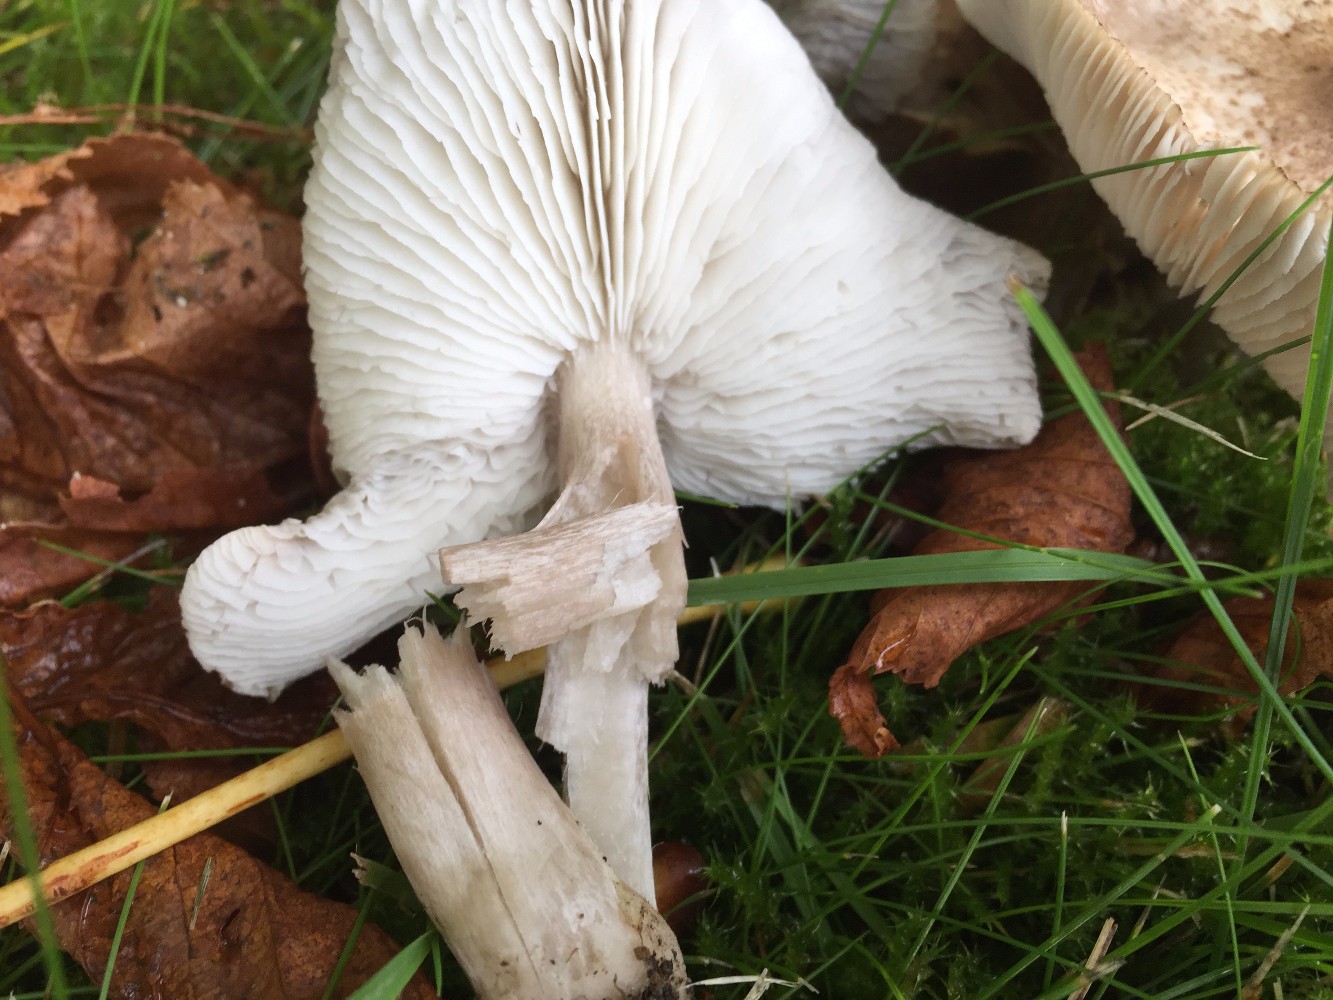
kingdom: Fungi
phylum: Basidiomycota
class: Agaricomycetes
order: Agaricales
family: Tricholomataceae
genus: Tricholoma
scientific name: Tricholoma scalpturatum
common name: gulplettet ridderhat
